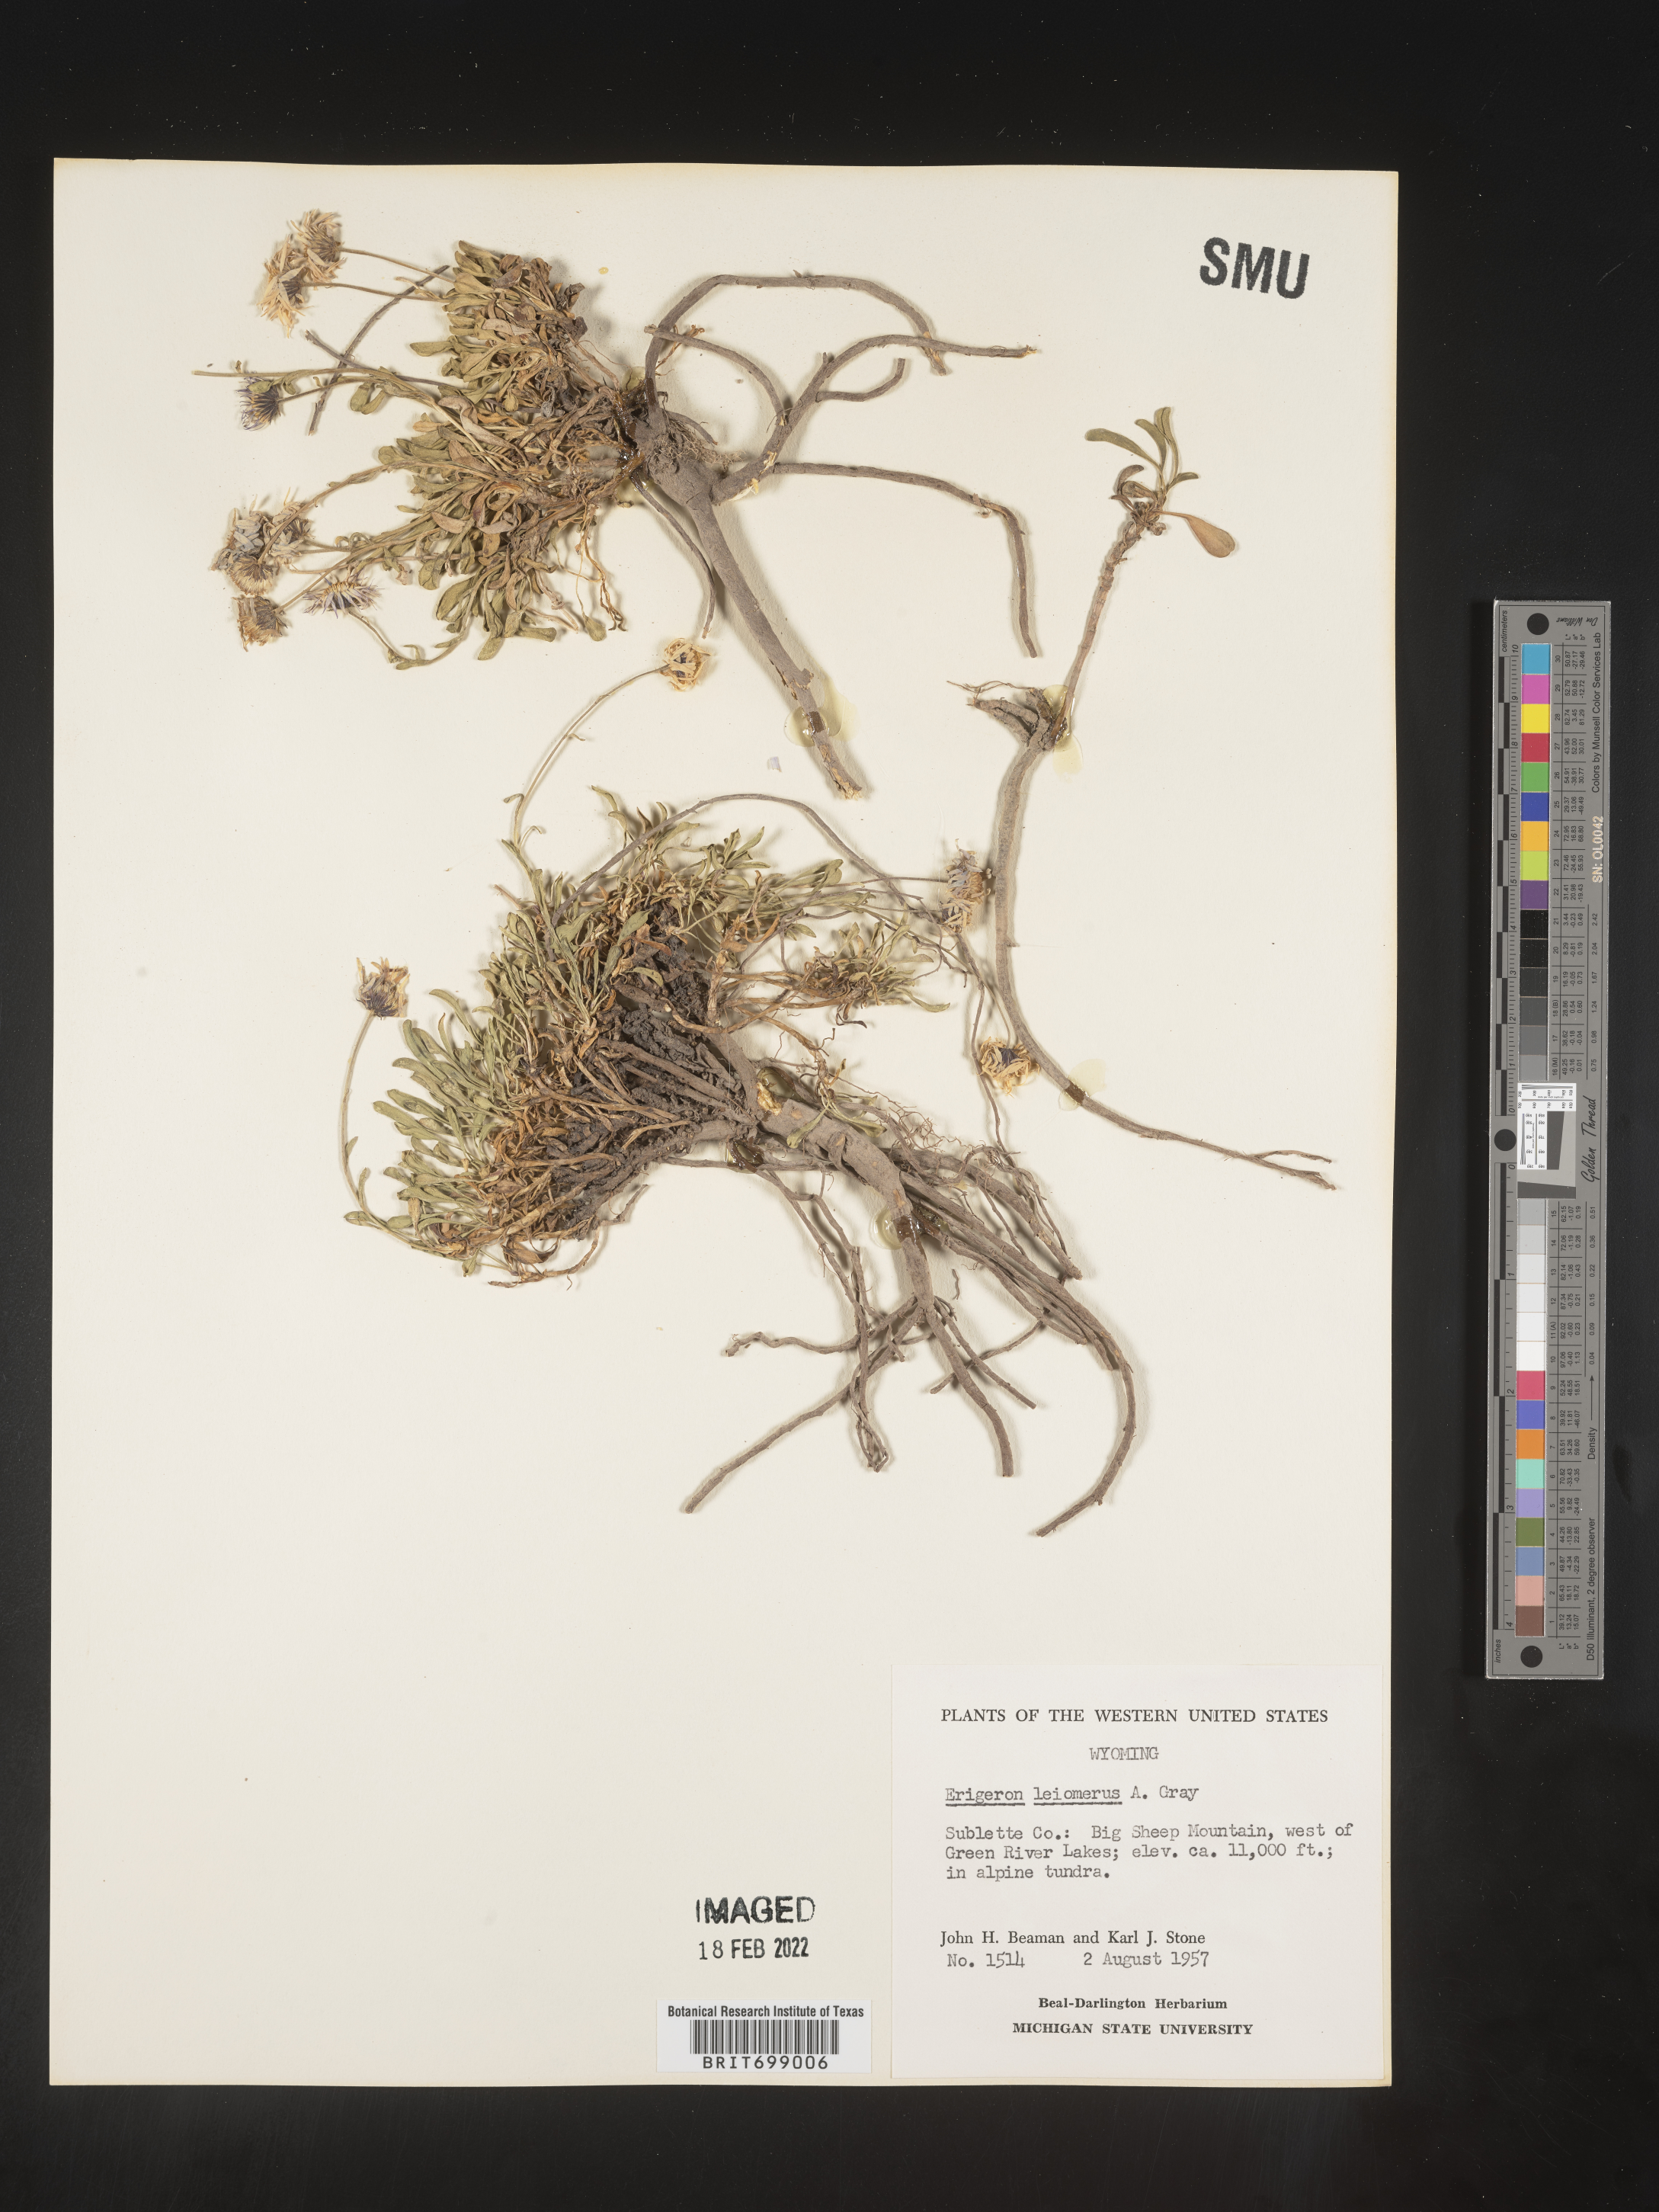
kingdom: Plantae
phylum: Tracheophyta
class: Magnoliopsida
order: Asterales
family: Asteraceae
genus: Erigeron
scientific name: Erigeron leiomerus
